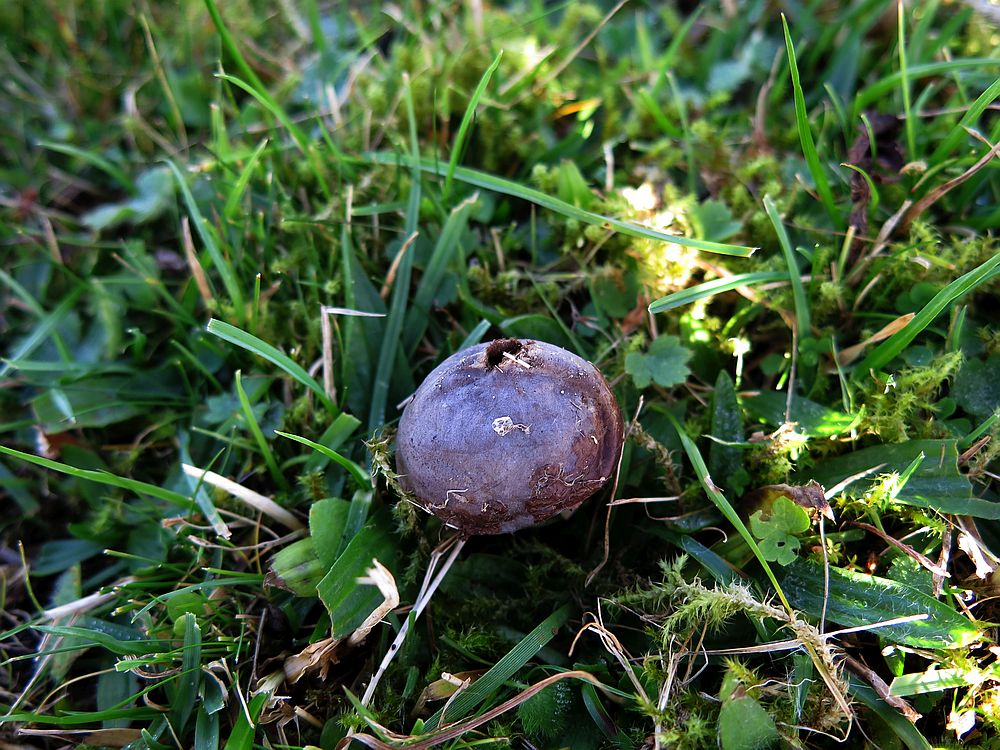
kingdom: Fungi
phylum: Basidiomycota
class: Agaricomycetes
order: Agaricales
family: Lycoperdaceae
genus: Bovista
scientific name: Bovista plumbea
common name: blygrå bovist
